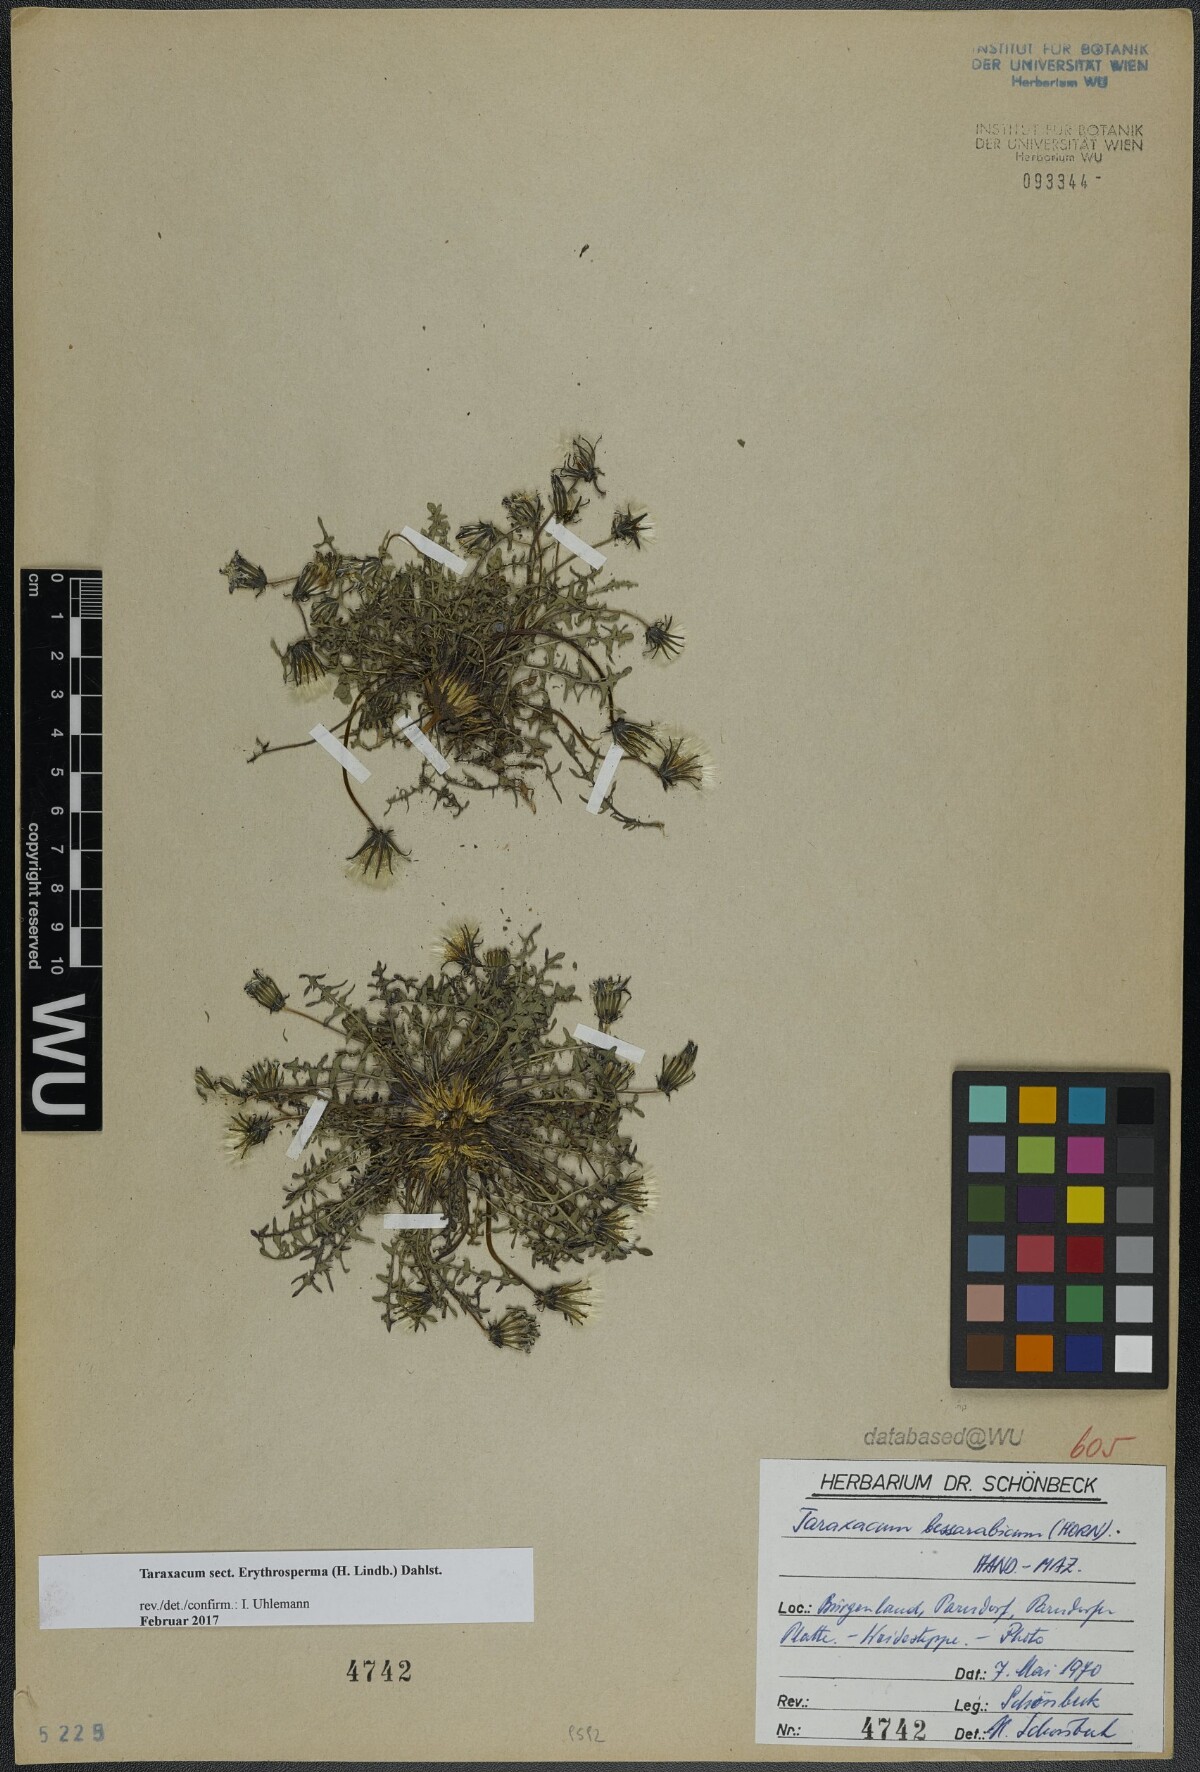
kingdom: Plantae
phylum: Tracheophyta
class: Magnoliopsida
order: Asterales
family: Asteraceae
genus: Taraxacum
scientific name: Taraxacum
